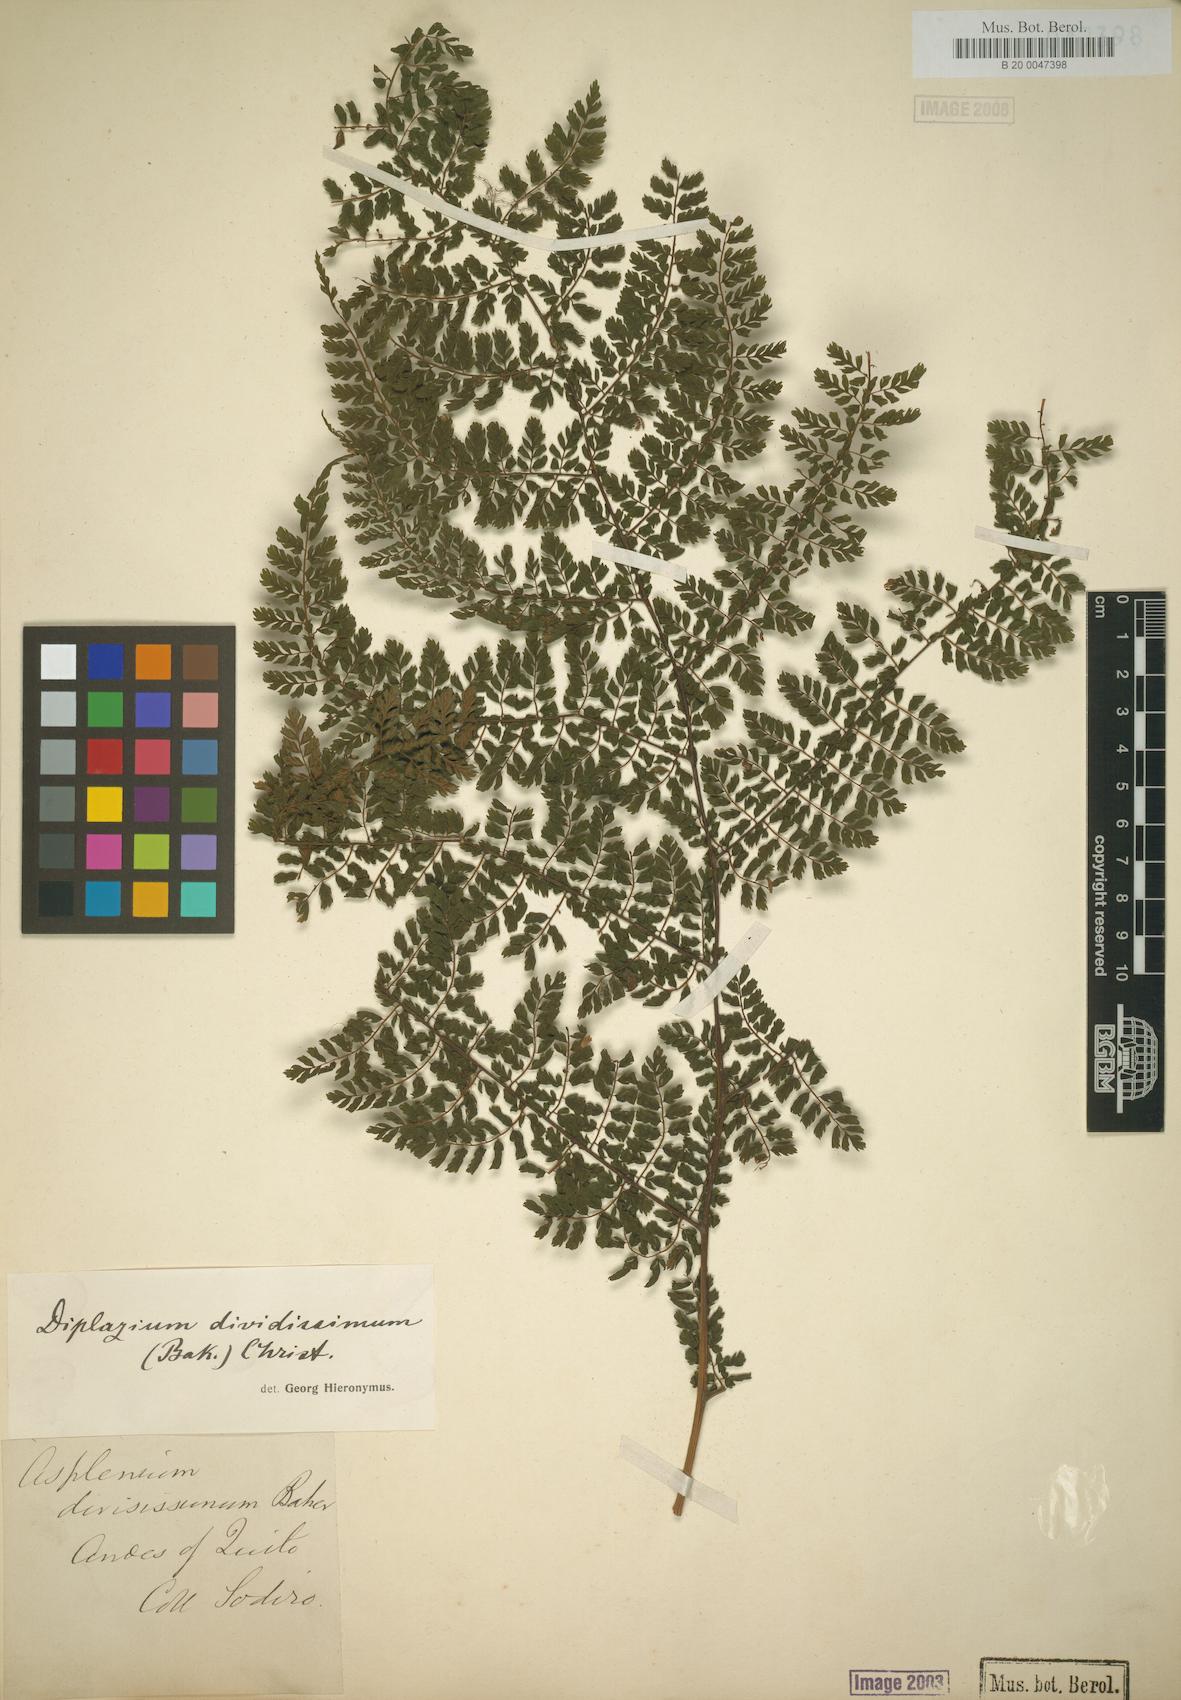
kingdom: Plantae
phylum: Tracheophyta
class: Polypodiopsida
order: Polypodiales
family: Athyriaceae
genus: Diplazium
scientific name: Diplazium divisissimum
